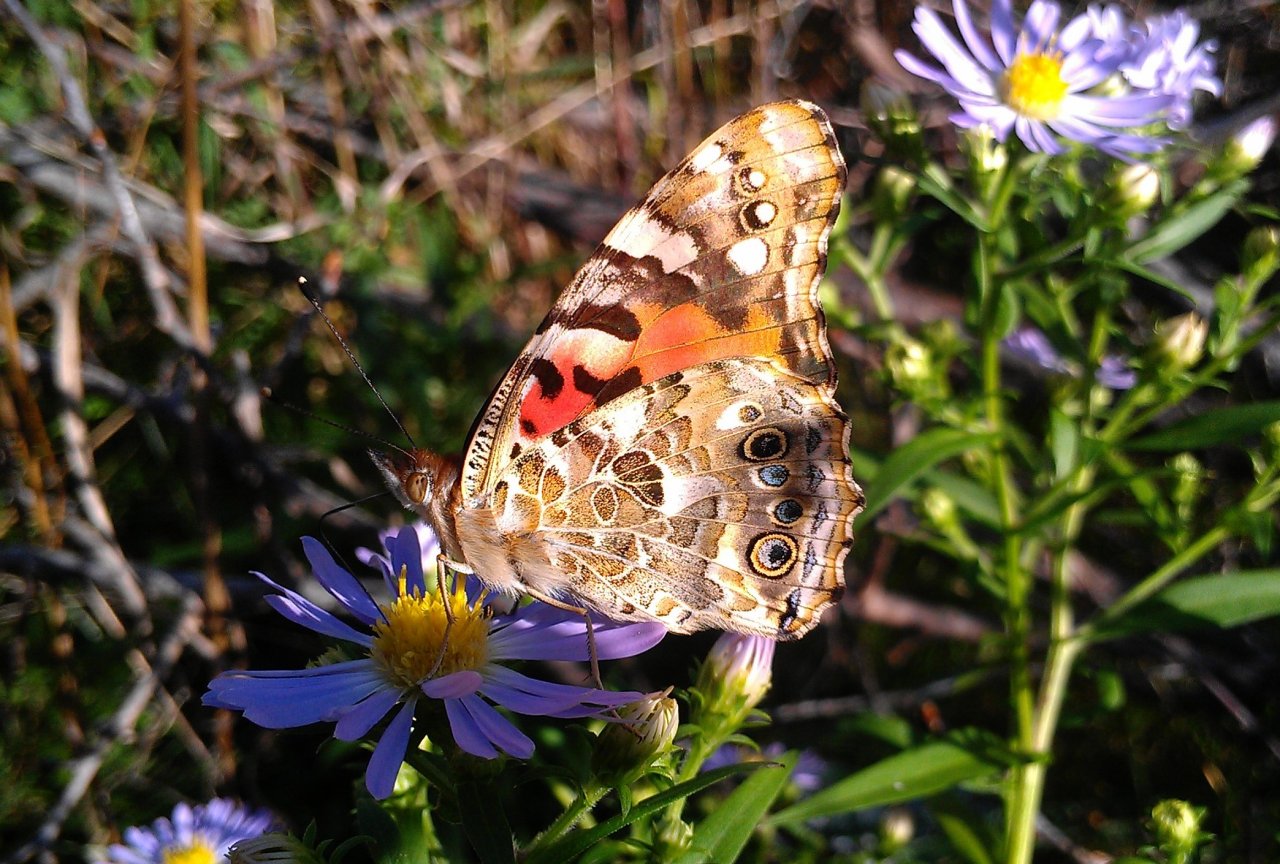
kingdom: Animalia
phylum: Arthropoda
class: Insecta
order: Lepidoptera
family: Nymphalidae
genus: Vanessa
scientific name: Vanessa cardui
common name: Painted Lady
